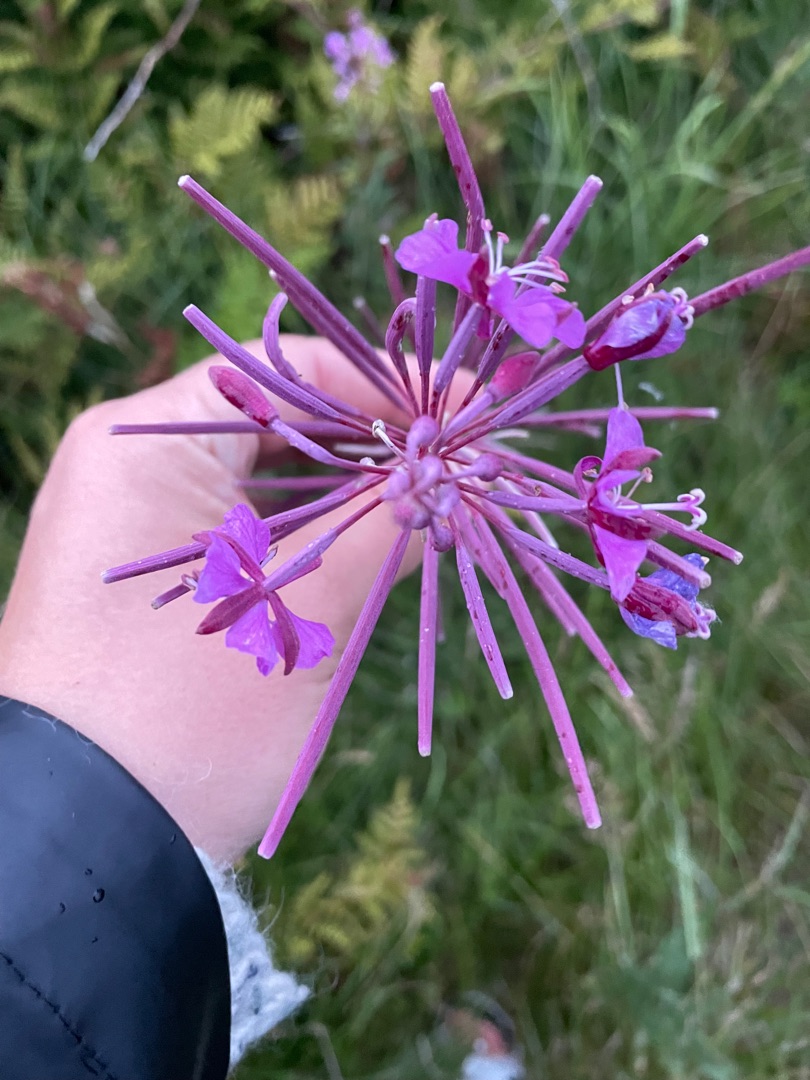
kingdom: Plantae
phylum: Tracheophyta
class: Magnoliopsida
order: Myrtales
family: Onagraceae
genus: Chamaenerion
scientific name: Chamaenerion angustifolium
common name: Gederams
